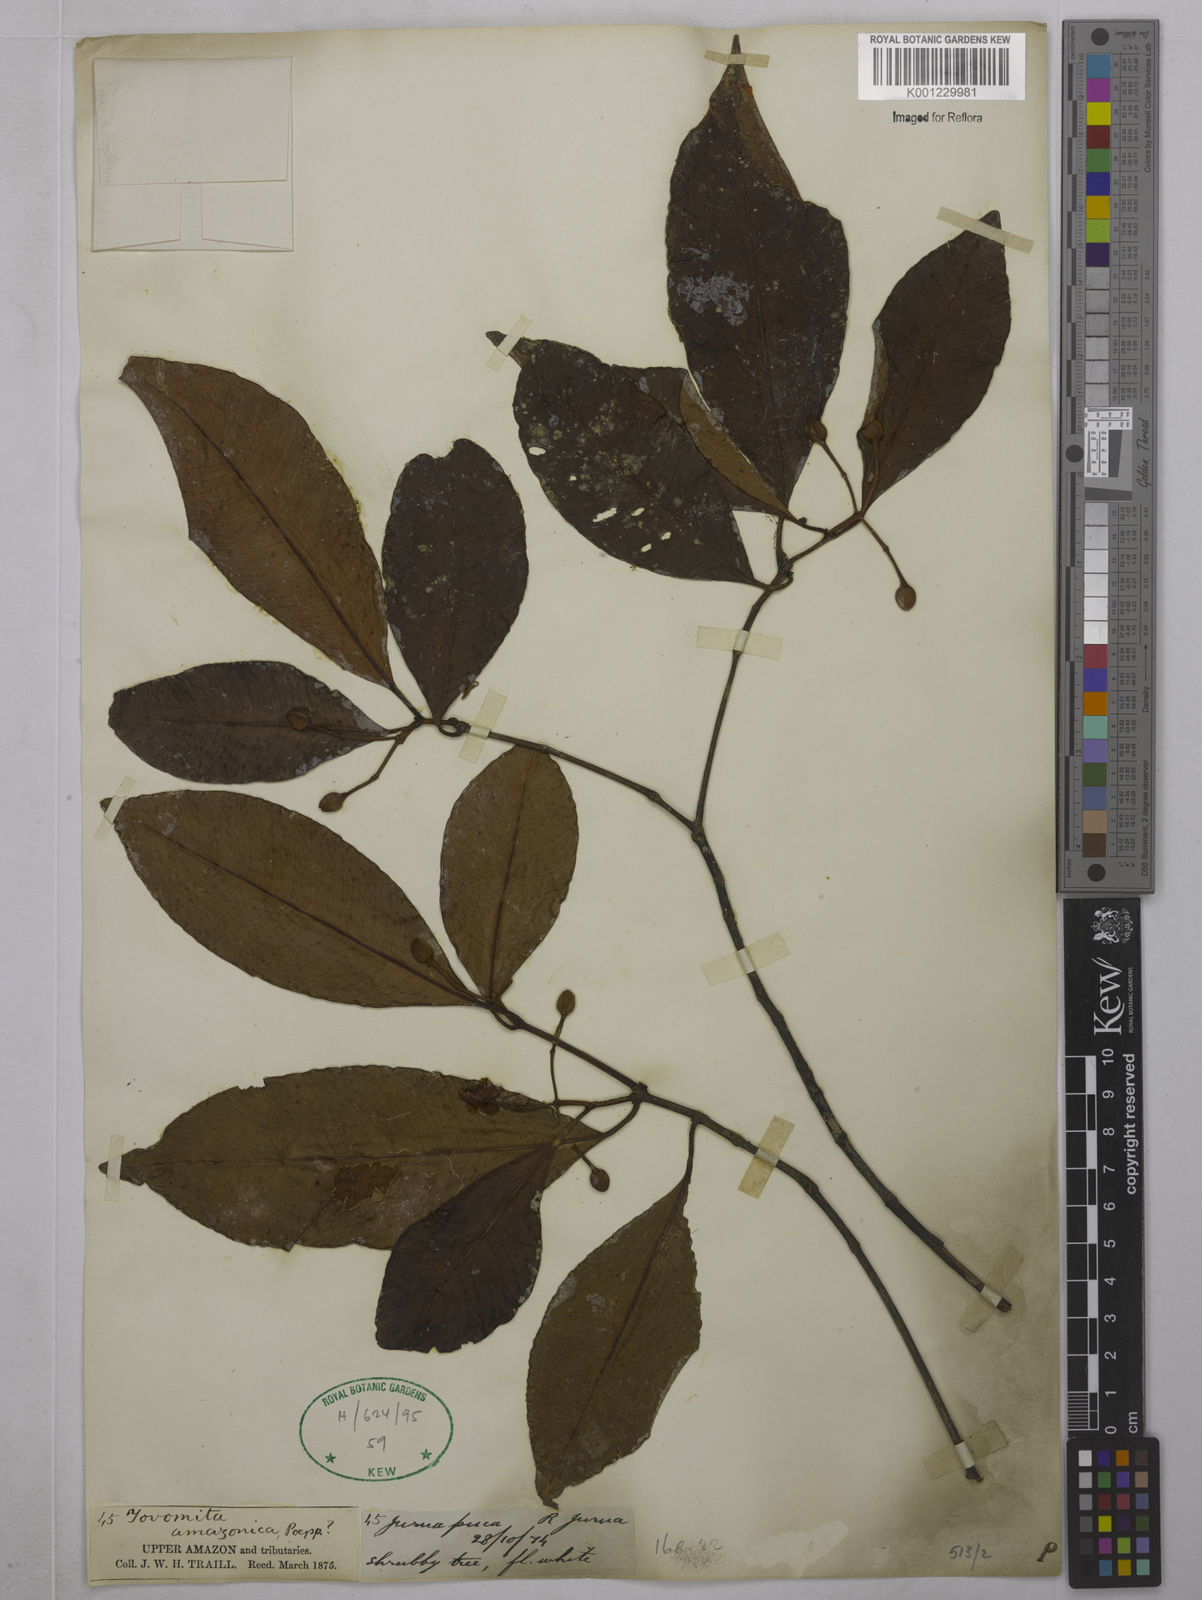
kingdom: Plantae
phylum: Tracheophyta
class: Magnoliopsida
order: Malpighiales
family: Clusiaceae
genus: Tovomita
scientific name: Tovomita amazonica
